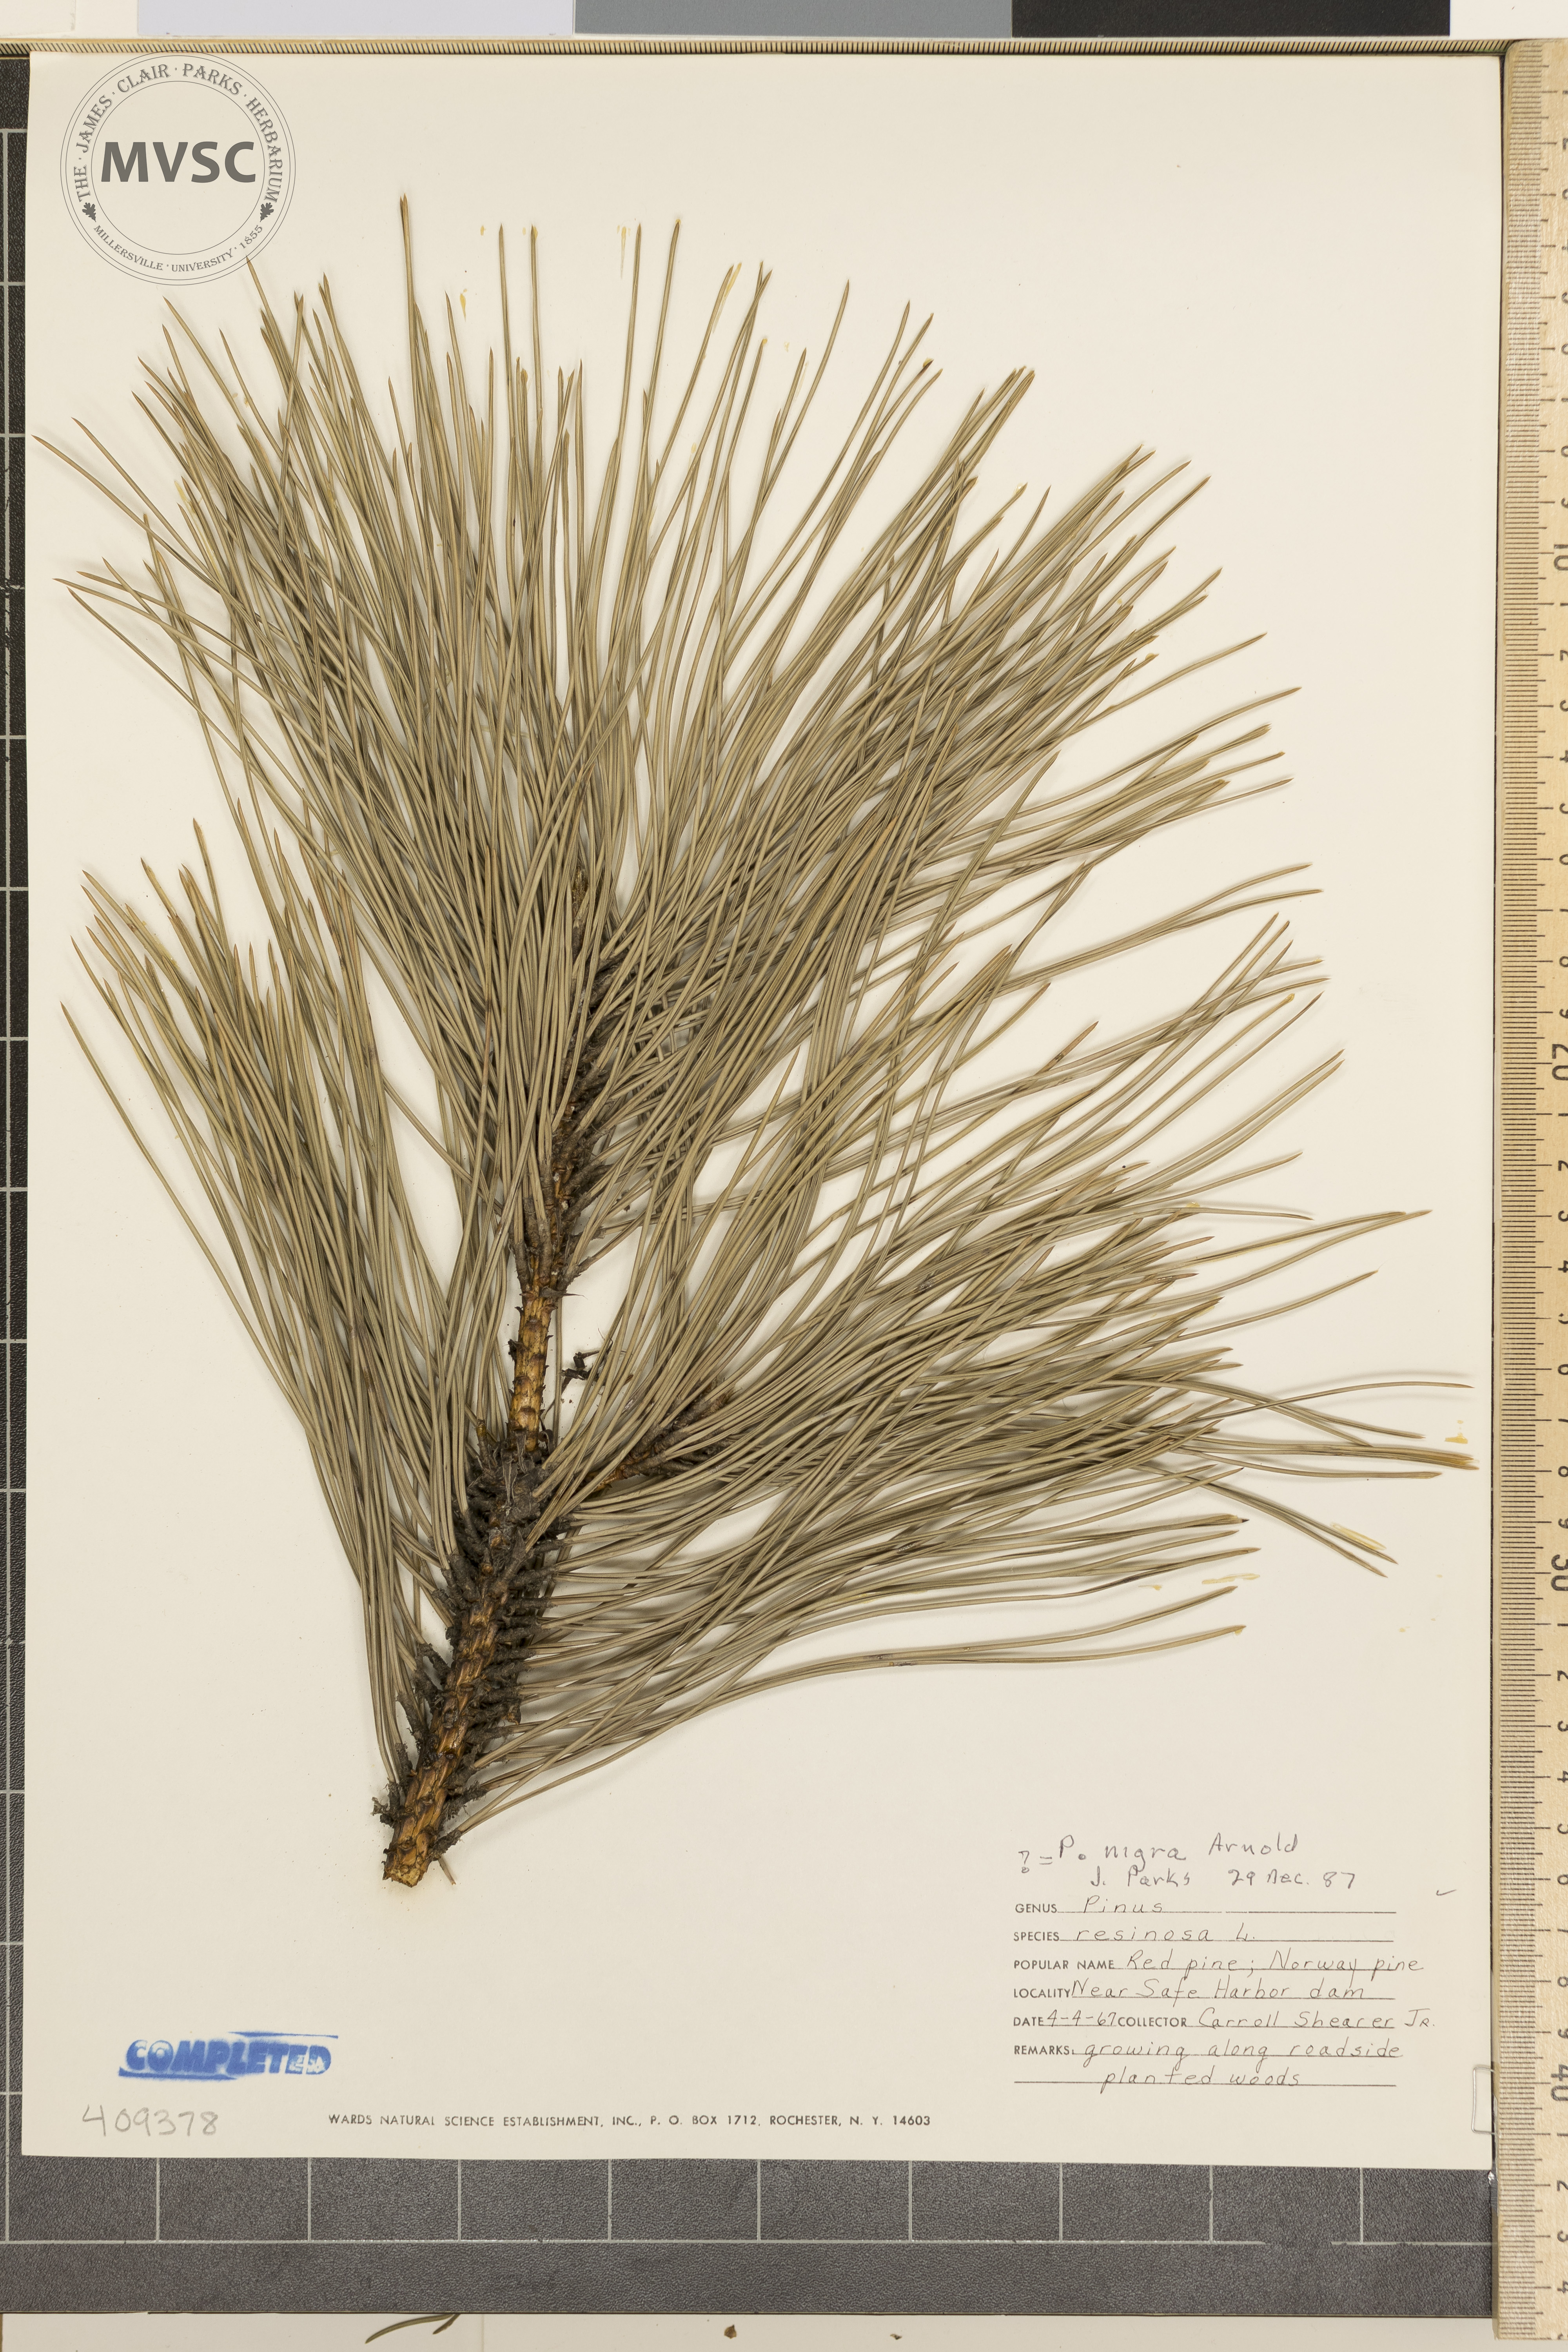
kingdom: Plantae
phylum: Tracheophyta
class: Pinopsida
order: Pinales
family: Pinaceae
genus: Pinus
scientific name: Pinus nigra
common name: Austrian pine
